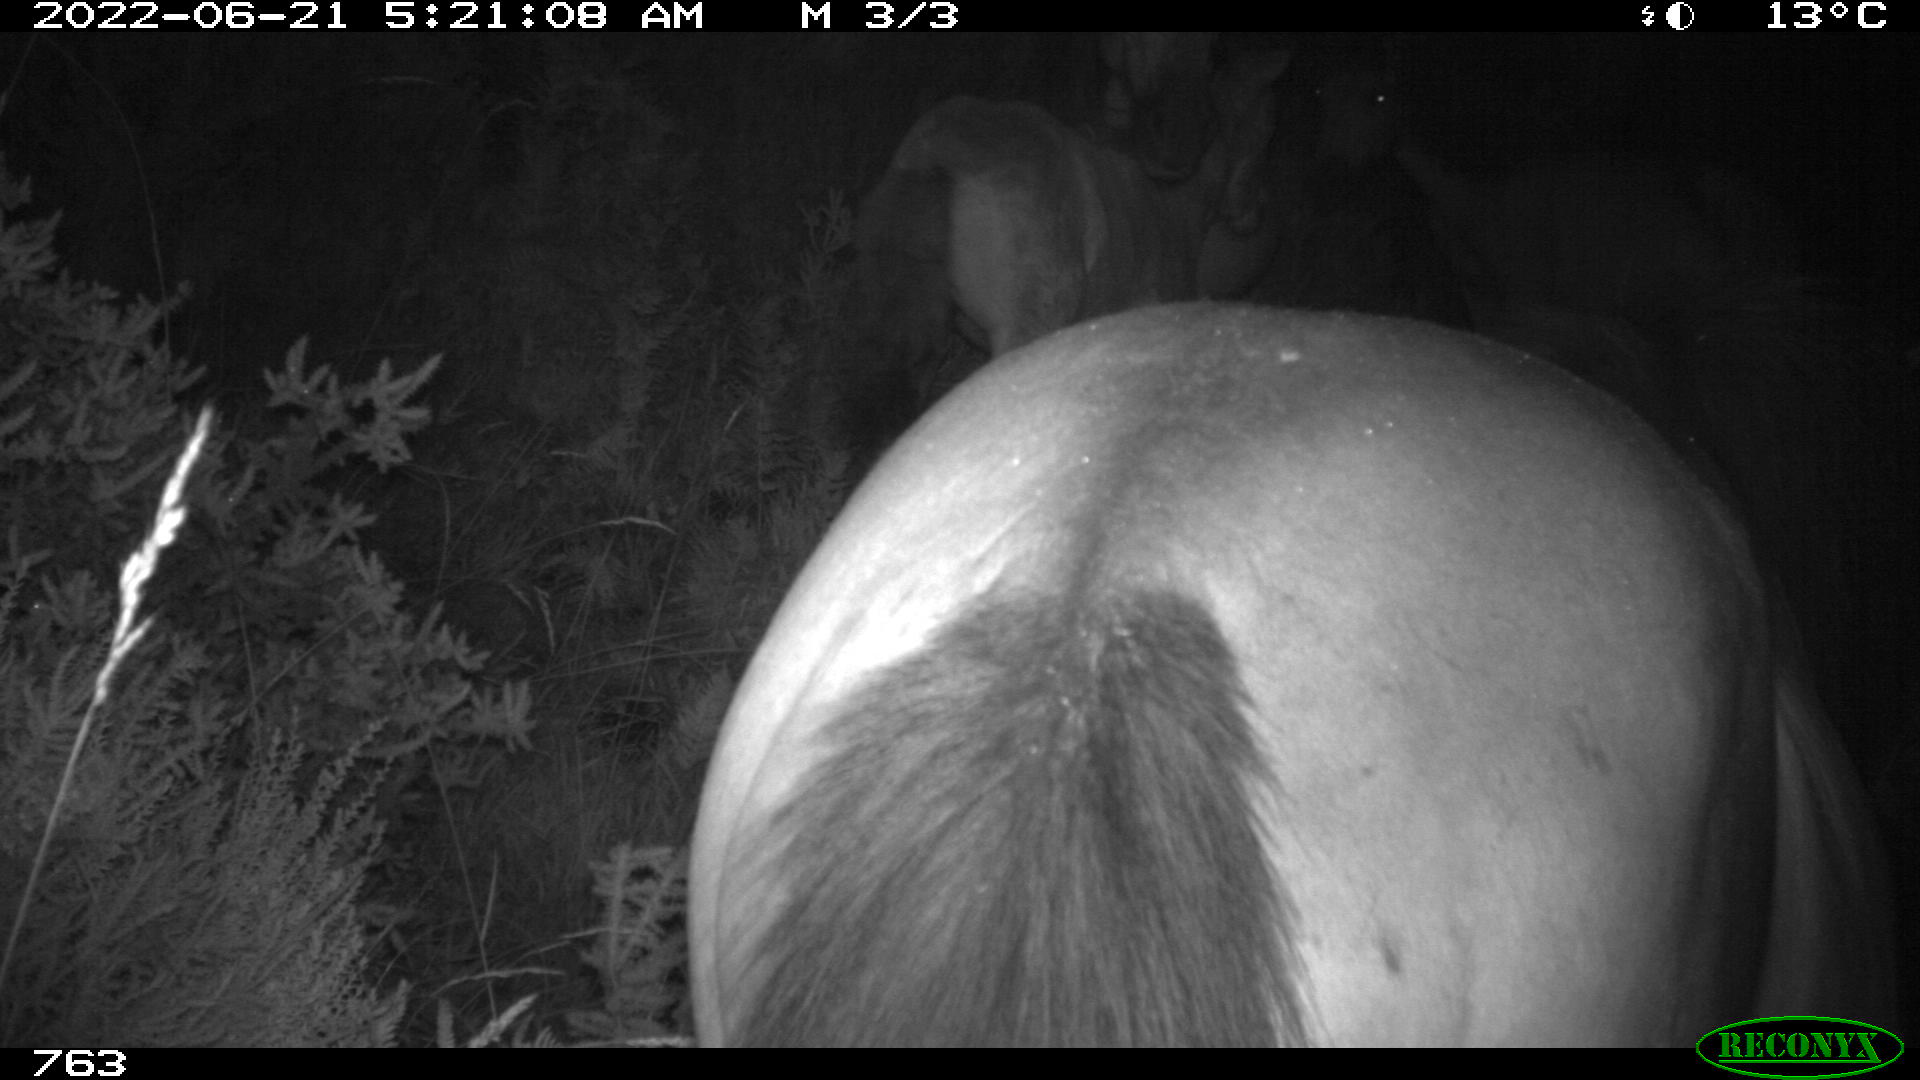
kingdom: Animalia
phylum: Chordata
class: Mammalia
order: Perissodactyla
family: Equidae
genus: Equus
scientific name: Equus caballus
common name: Horse
